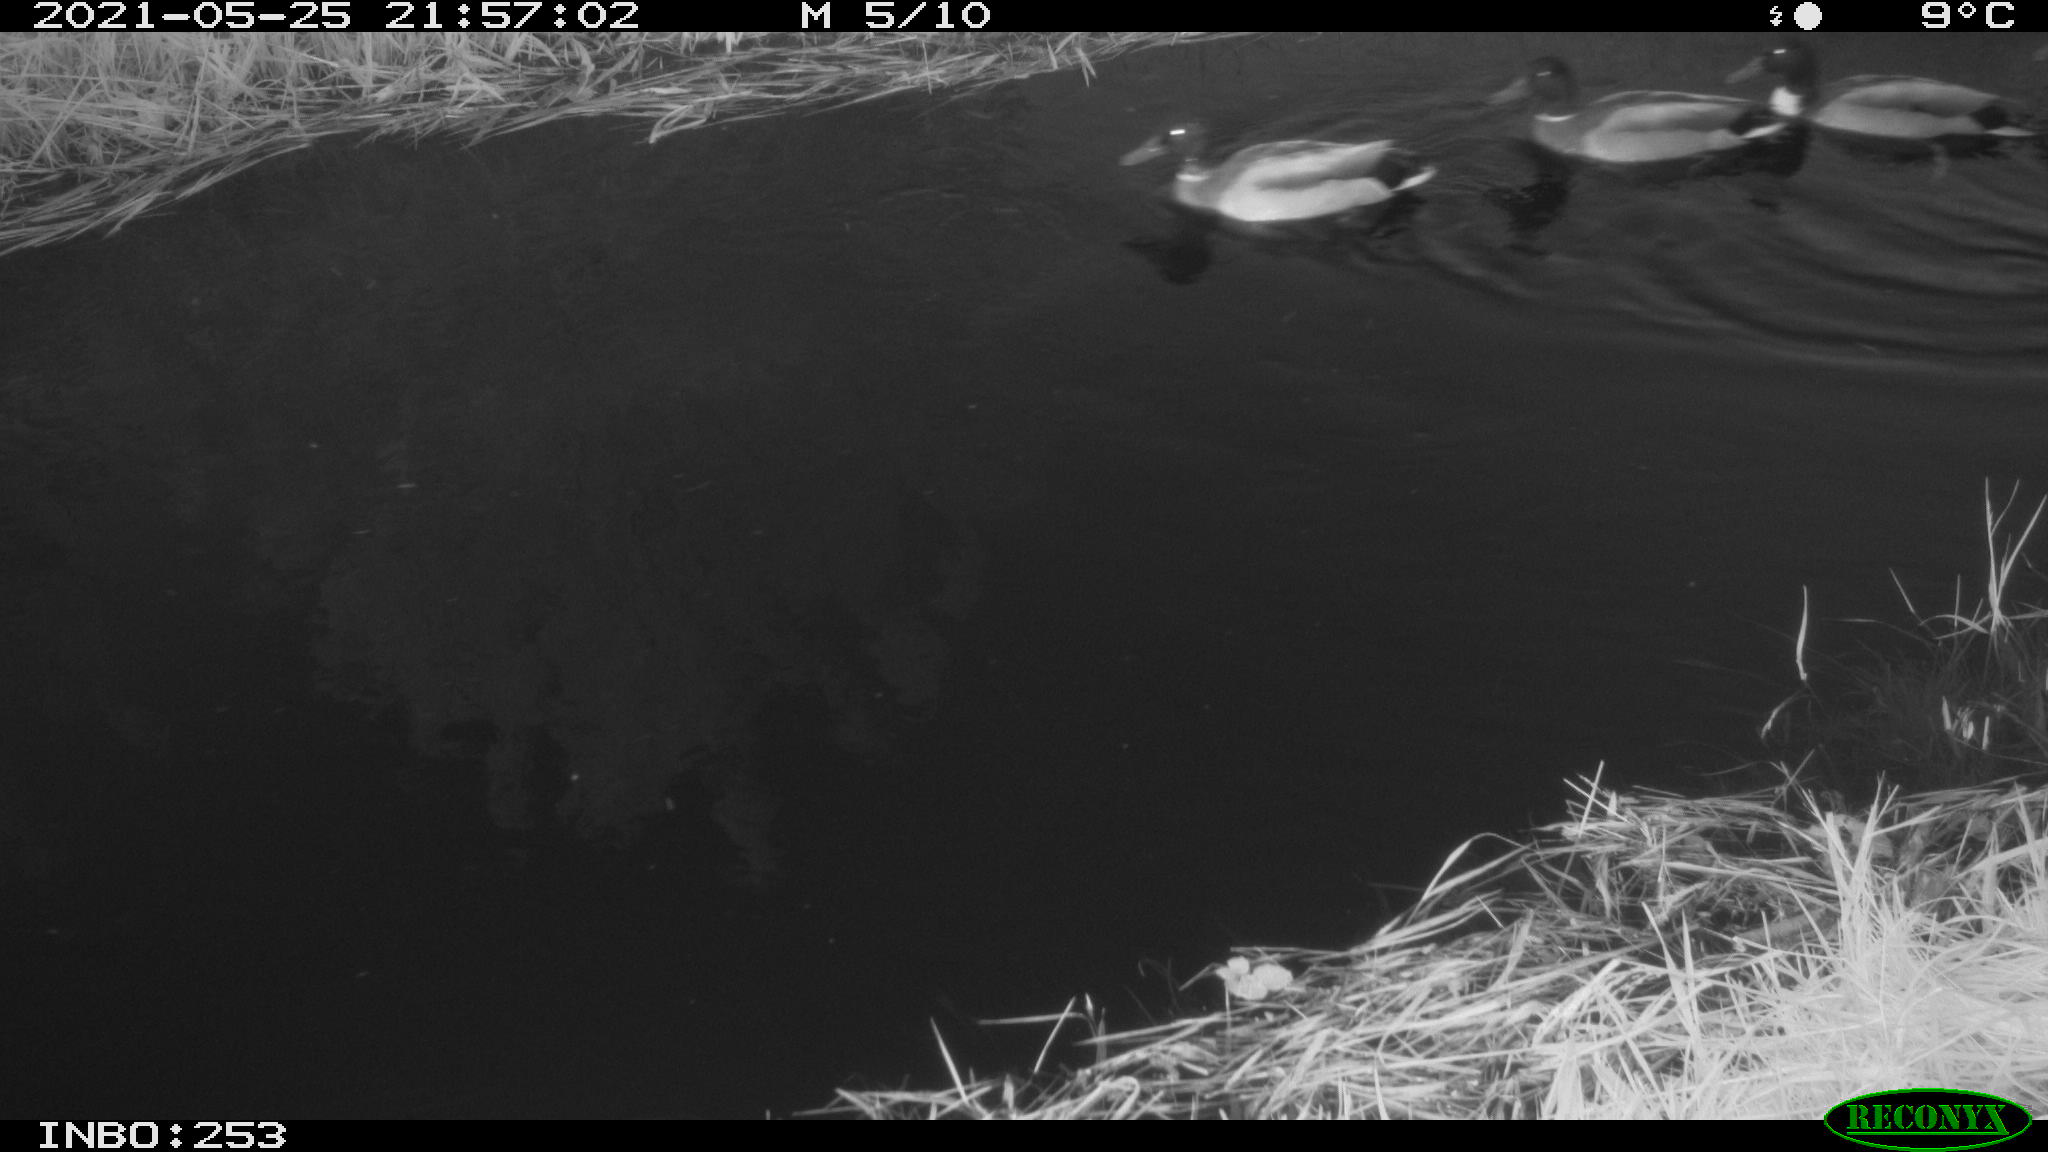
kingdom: Animalia
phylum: Chordata
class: Aves
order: Anseriformes
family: Anatidae
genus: Anas
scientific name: Anas
